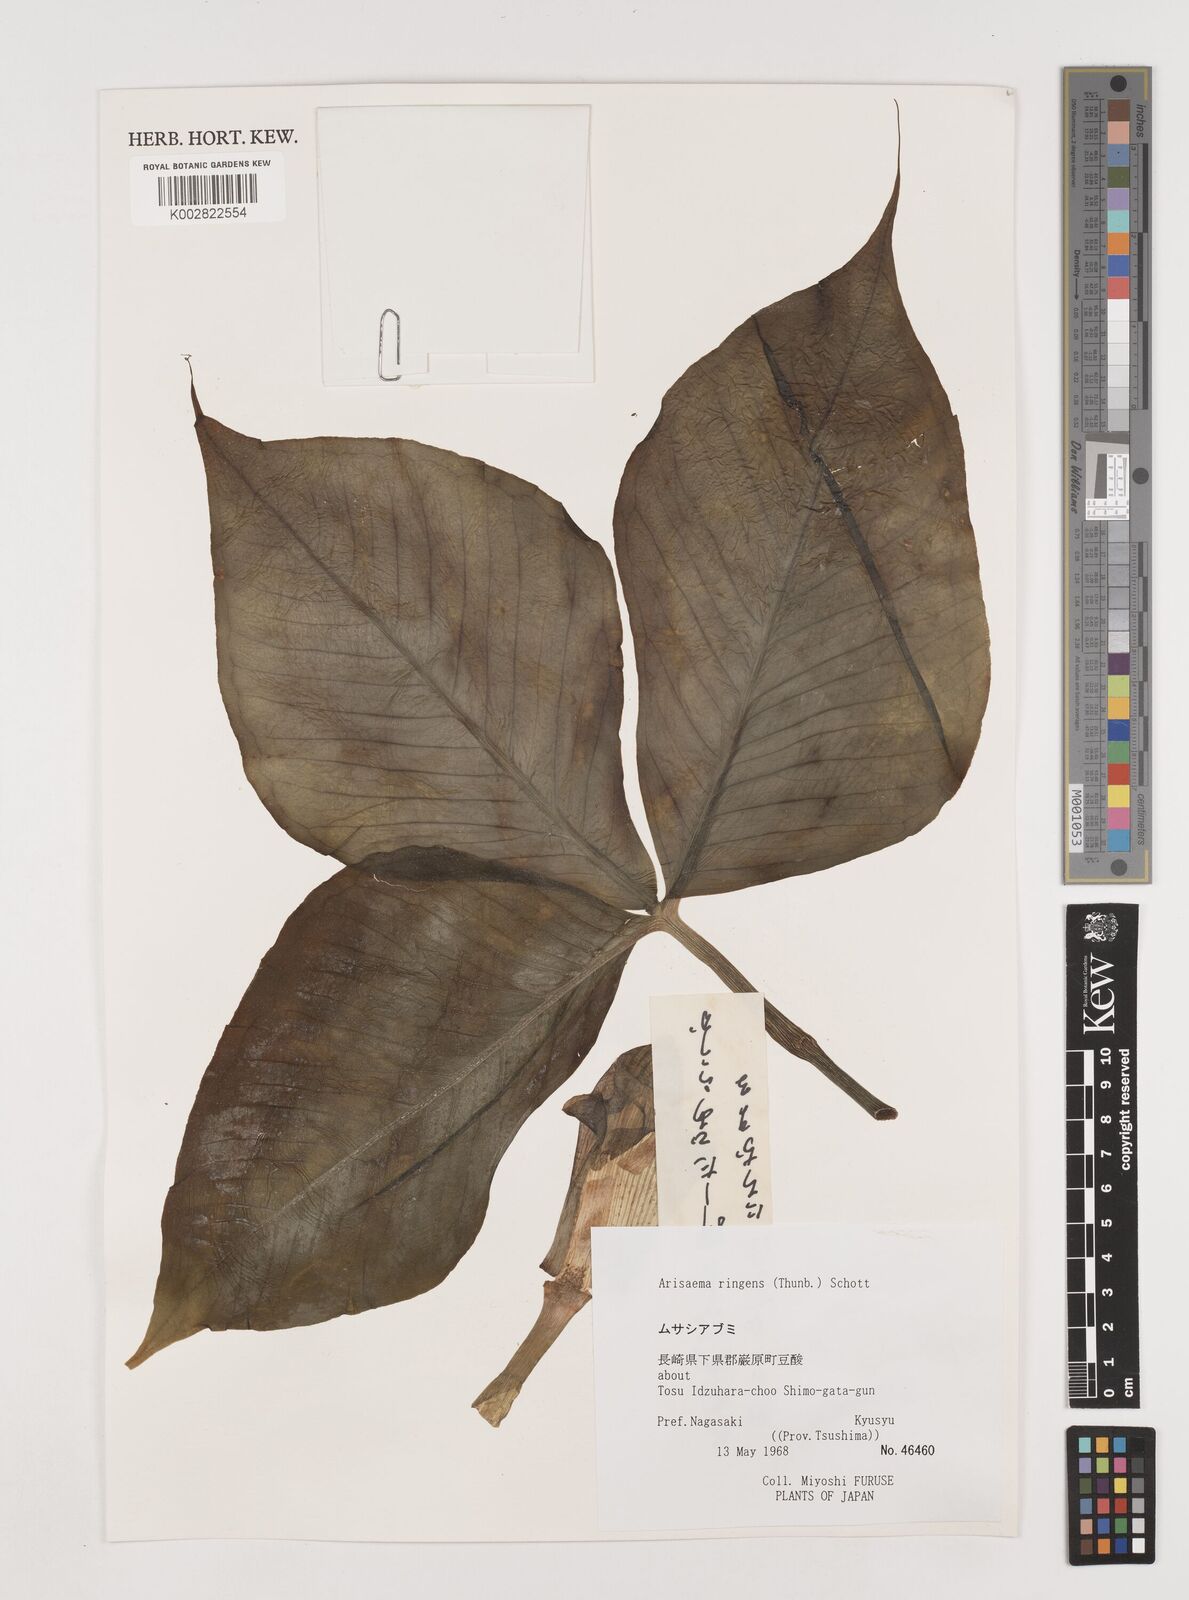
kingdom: Plantae
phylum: Tracheophyta
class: Liliopsida
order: Alismatales
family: Araceae
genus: Arisaema
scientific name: Arisaema ringens
